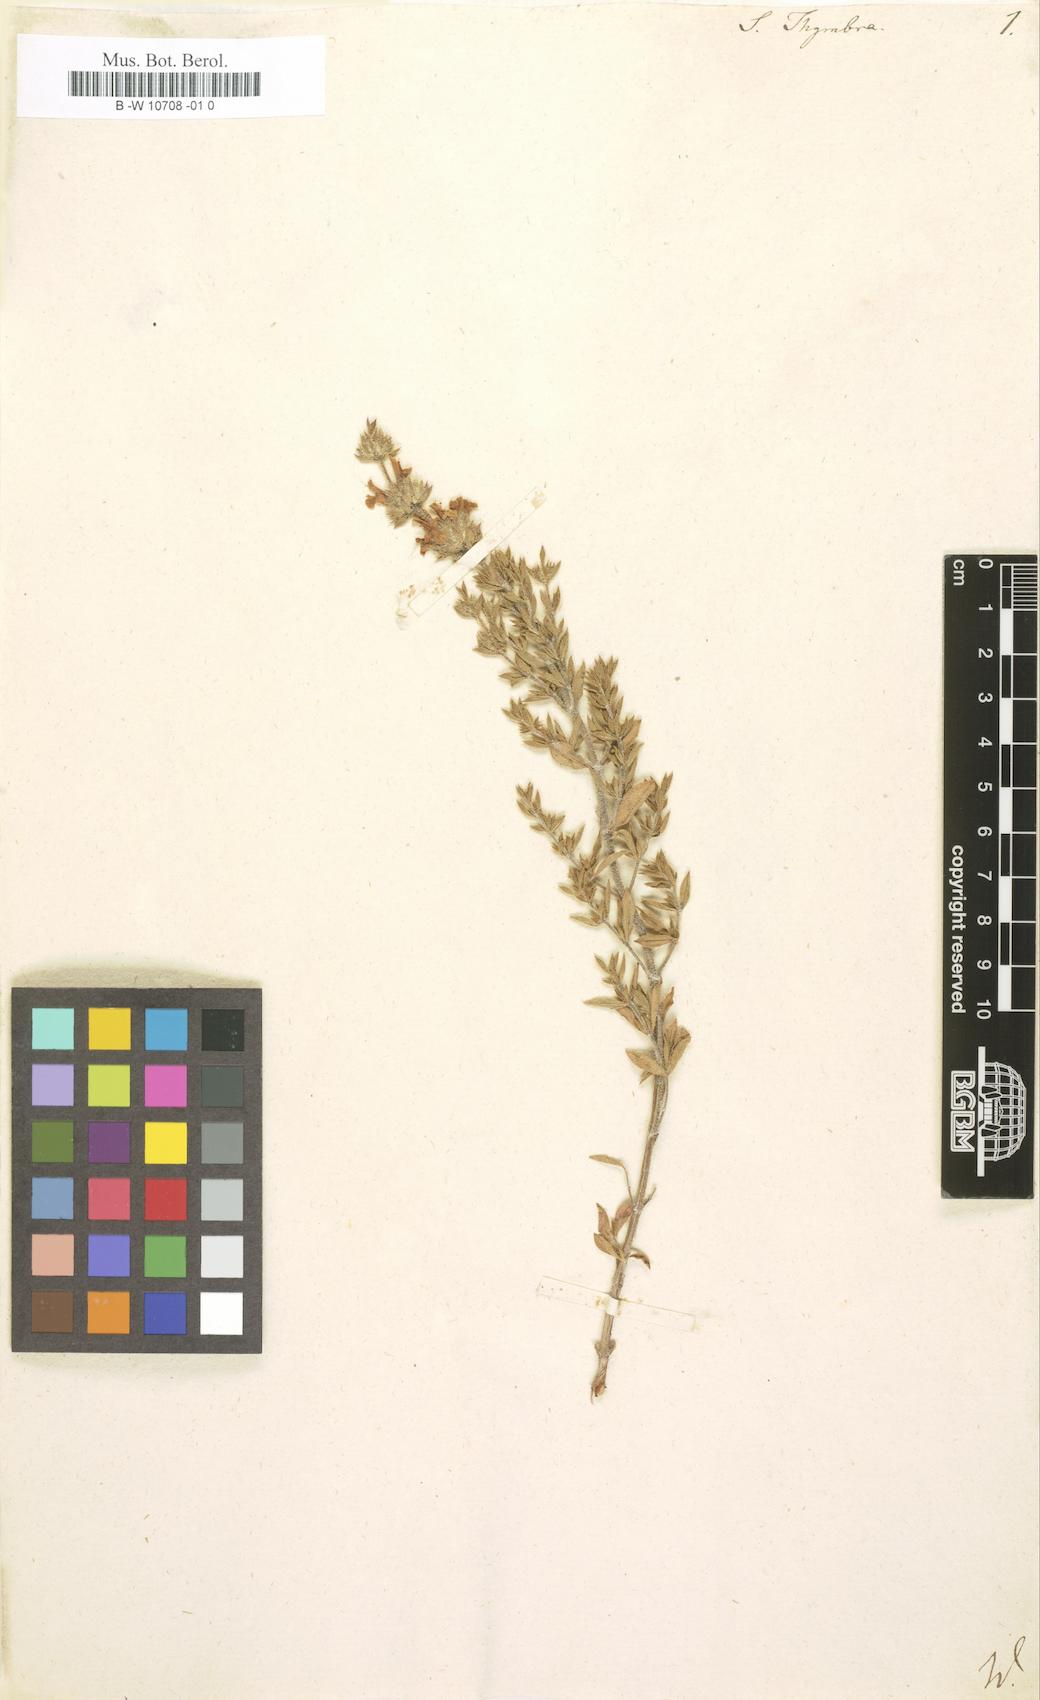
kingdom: Plantae
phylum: Tracheophyta
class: Magnoliopsida
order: Lamiales
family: Lamiaceae
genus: Satureja
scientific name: Satureja thymbra
